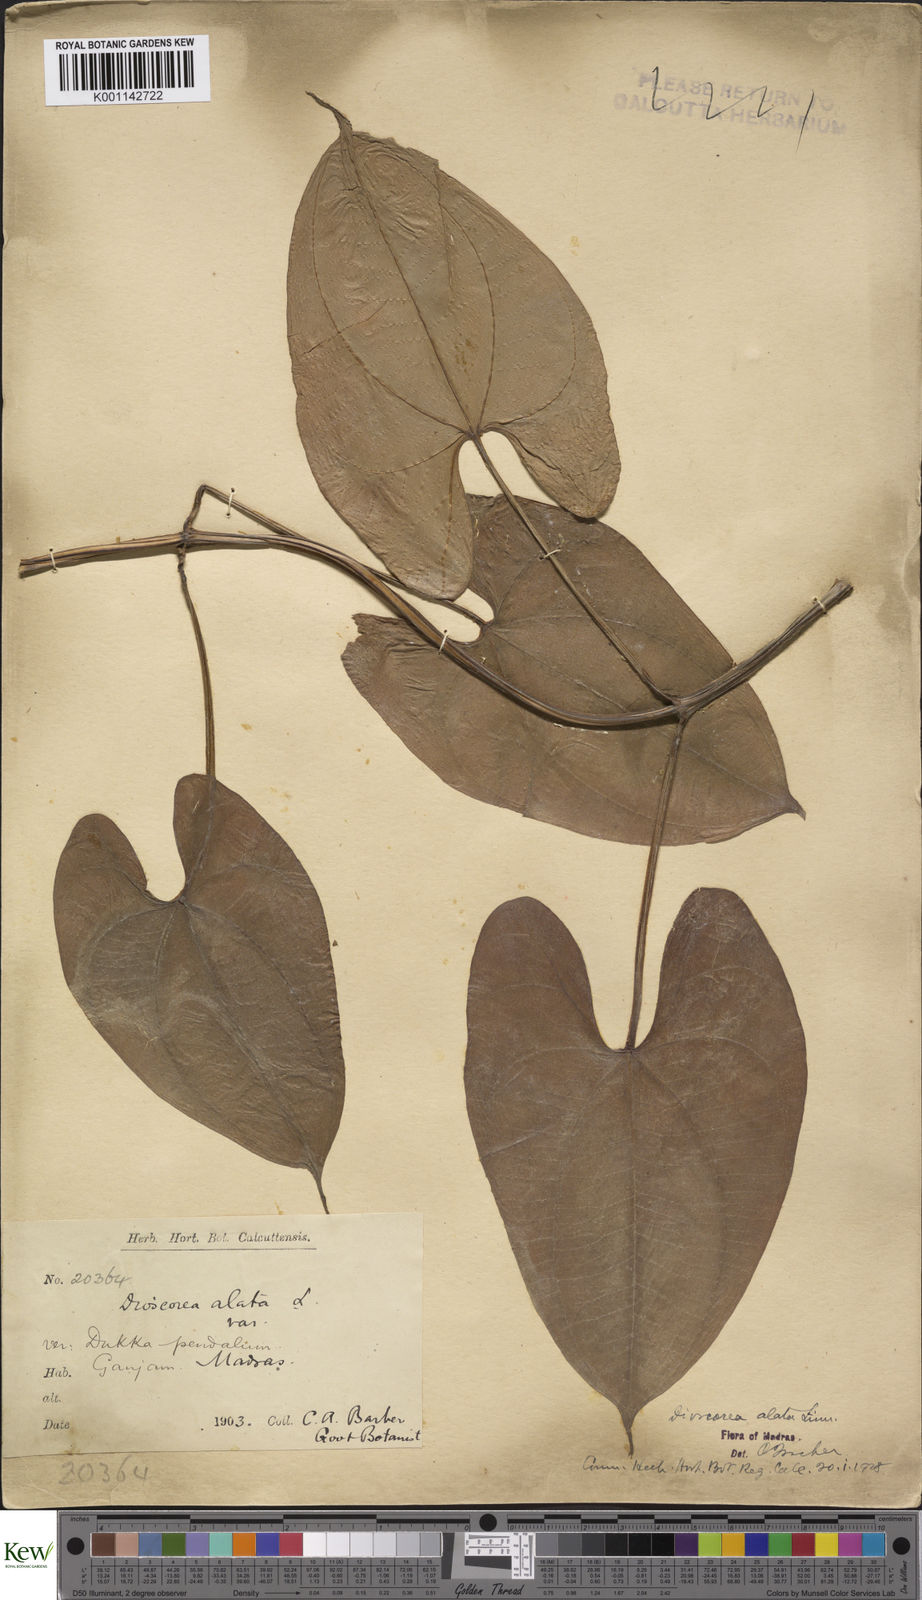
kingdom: Plantae
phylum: Tracheophyta
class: Liliopsida
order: Dioscoreales
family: Dioscoreaceae
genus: Dioscorea
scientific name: Dioscorea alata
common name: Water yam
